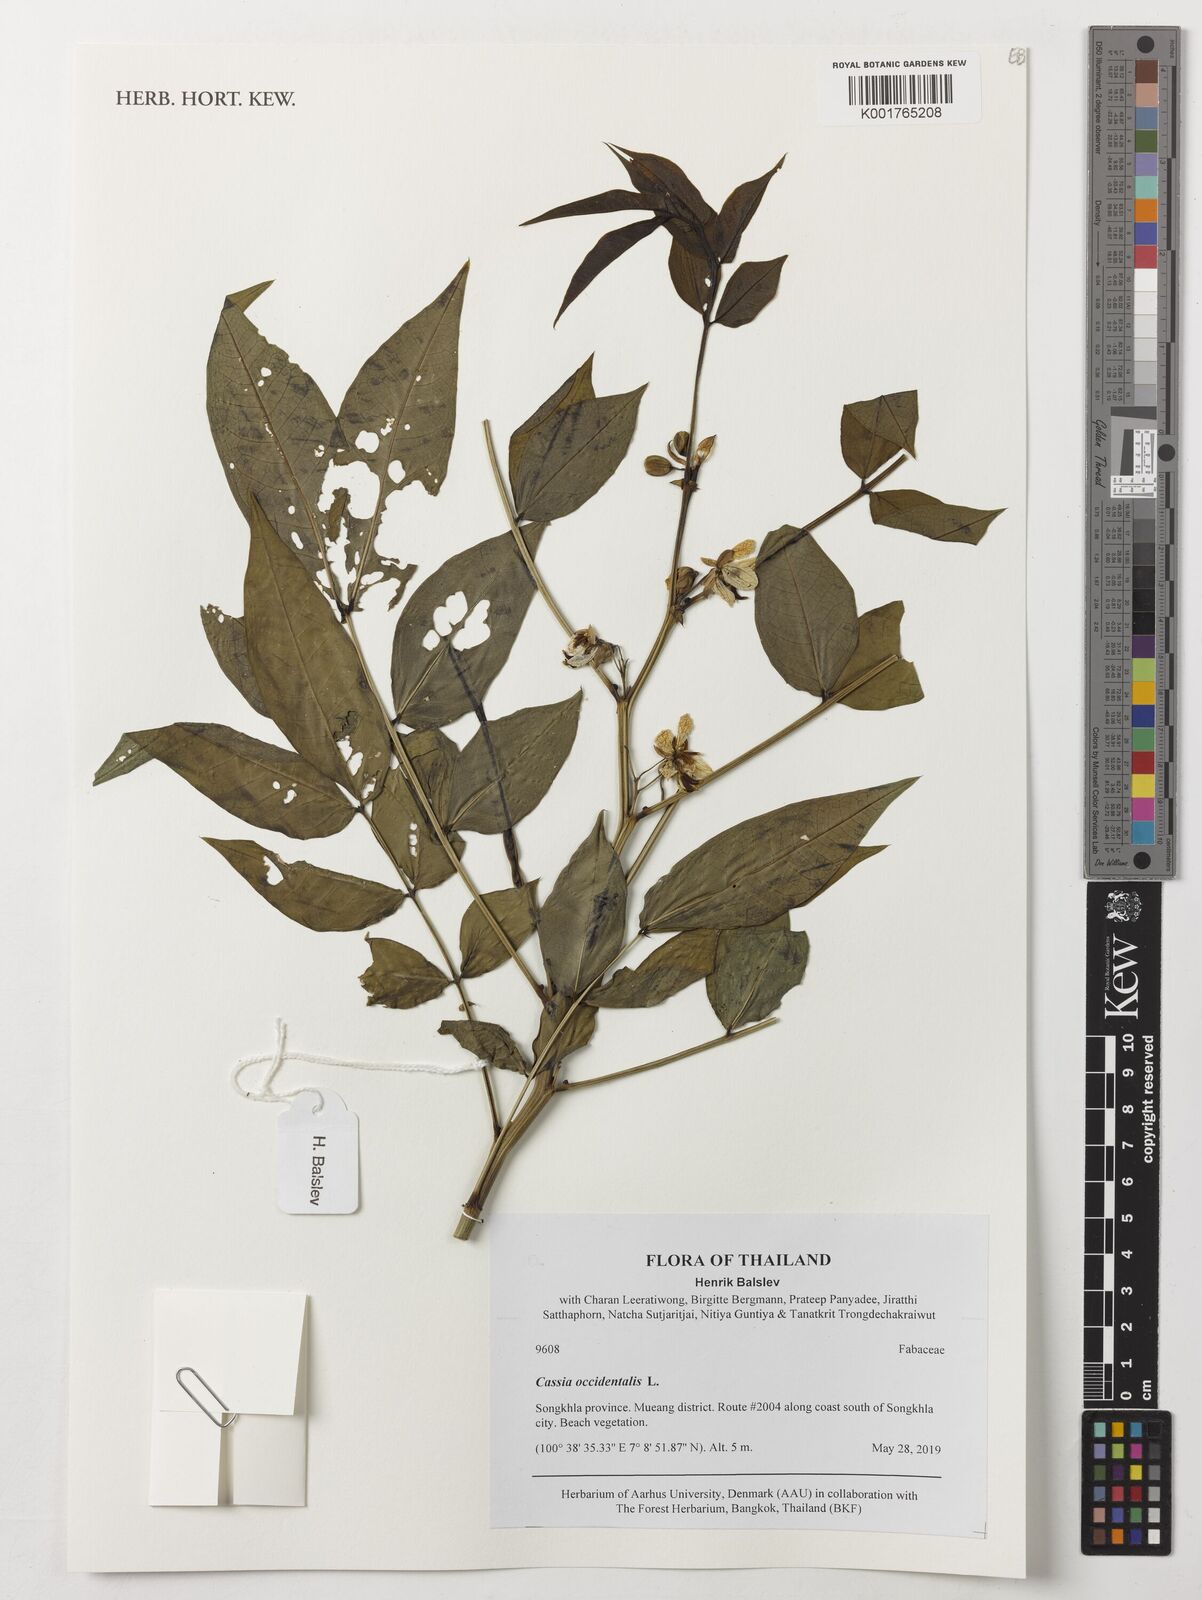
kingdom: Plantae
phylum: Tracheophyta
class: Magnoliopsida
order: Fabales
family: Fabaceae
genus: Senna
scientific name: Senna occidentalis
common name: Septicweed
